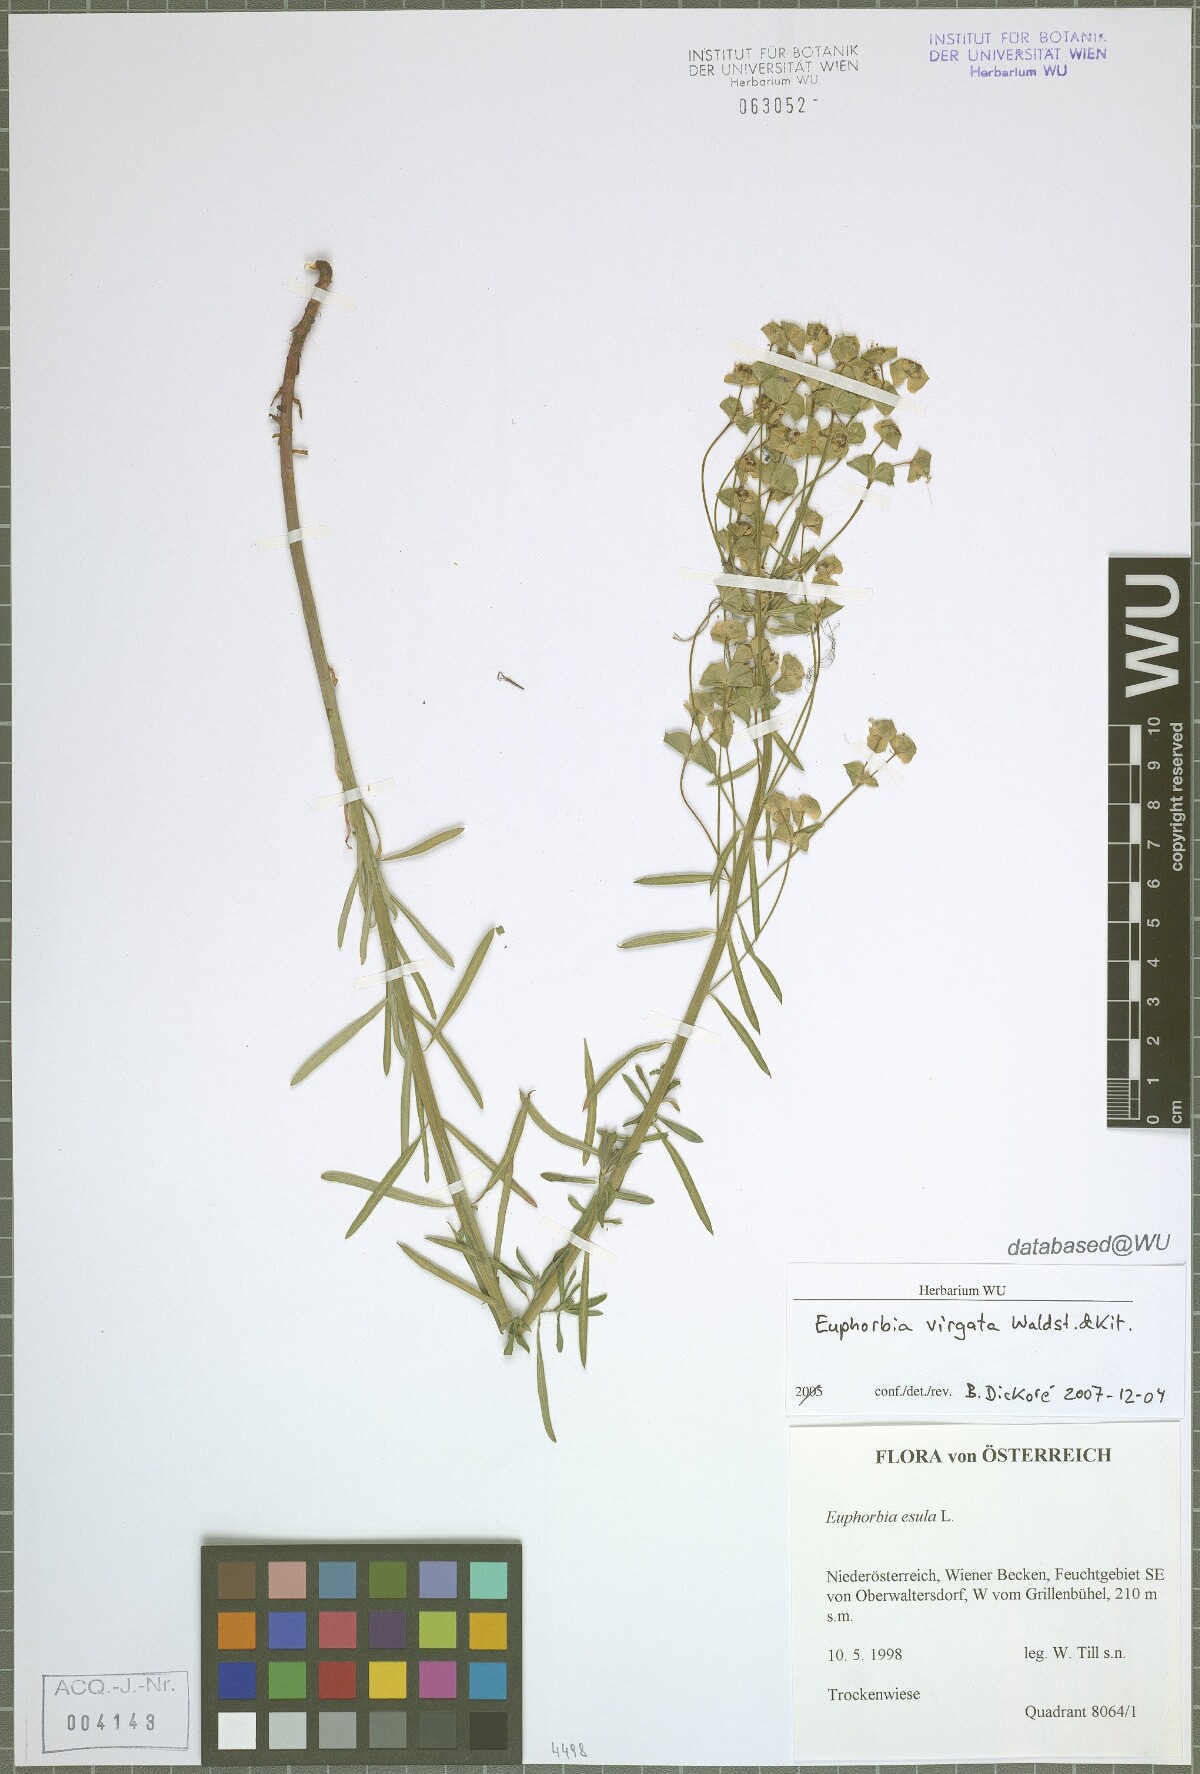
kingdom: Plantae
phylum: Tracheophyta
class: Magnoliopsida
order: Malpighiales
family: Euphorbiaceae
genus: Euphorbia
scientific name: Euphorbia esula
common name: Leafy spurge
